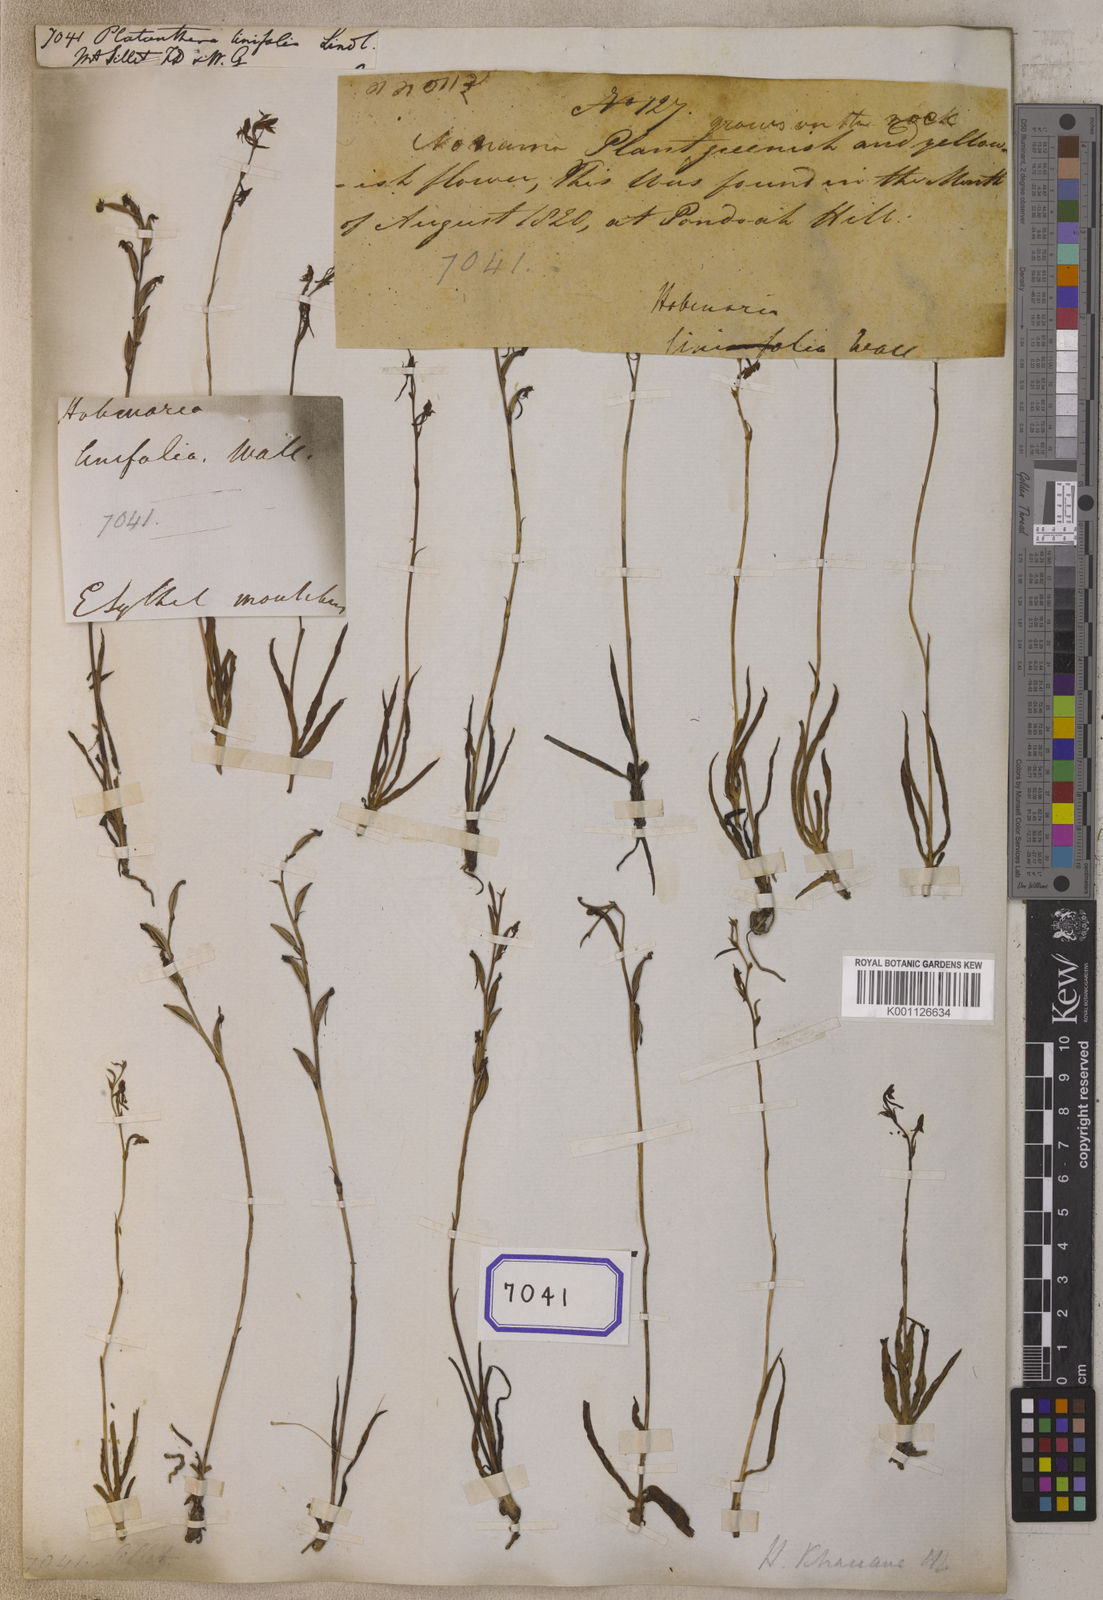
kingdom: Plantae
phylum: Tracheophyta
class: Liliopsida
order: Asparagales
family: Orchidaceae
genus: Platanthera
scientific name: Platanthera
